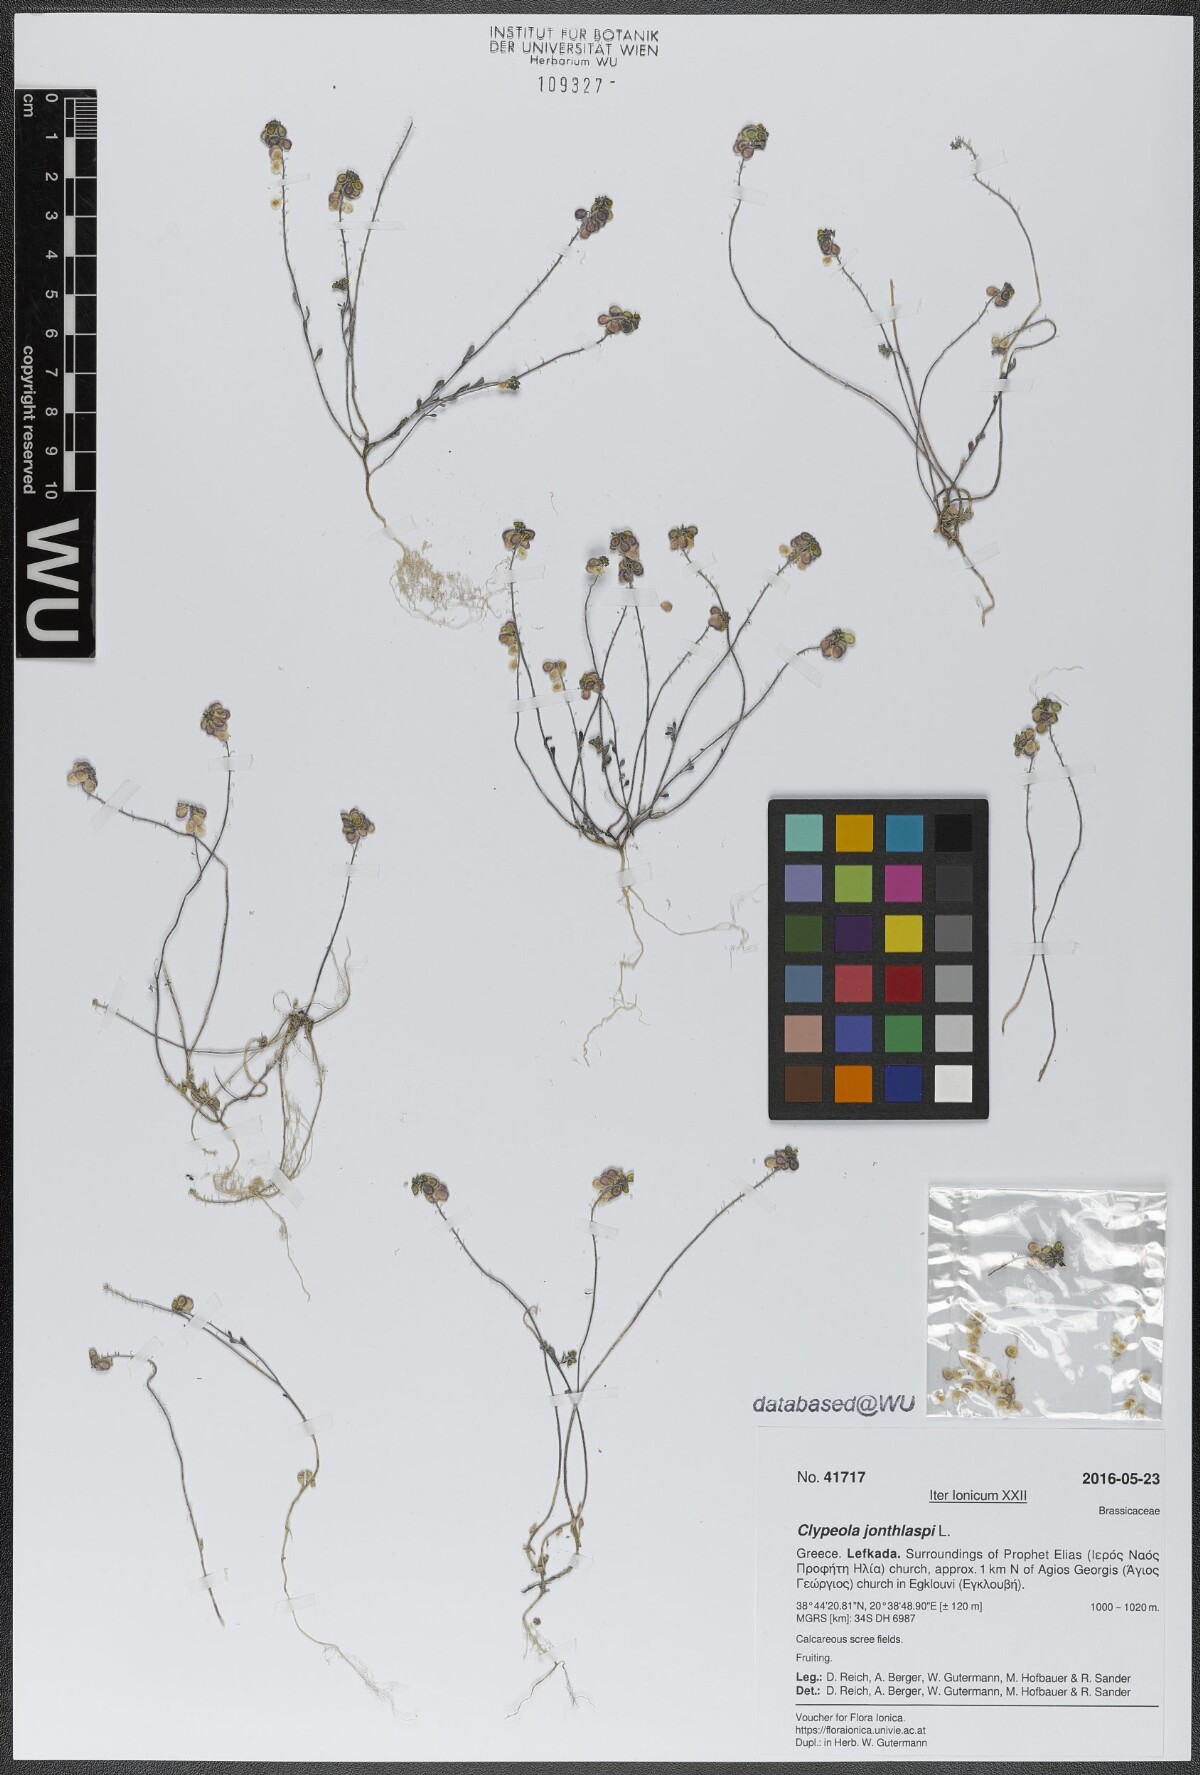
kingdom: Plantae
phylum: Tracheophyta
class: Magnoliopsida
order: Brassicales
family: Brassicaceae
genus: Clypeola
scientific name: Clypeola jonthlaspi
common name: Disk cress
